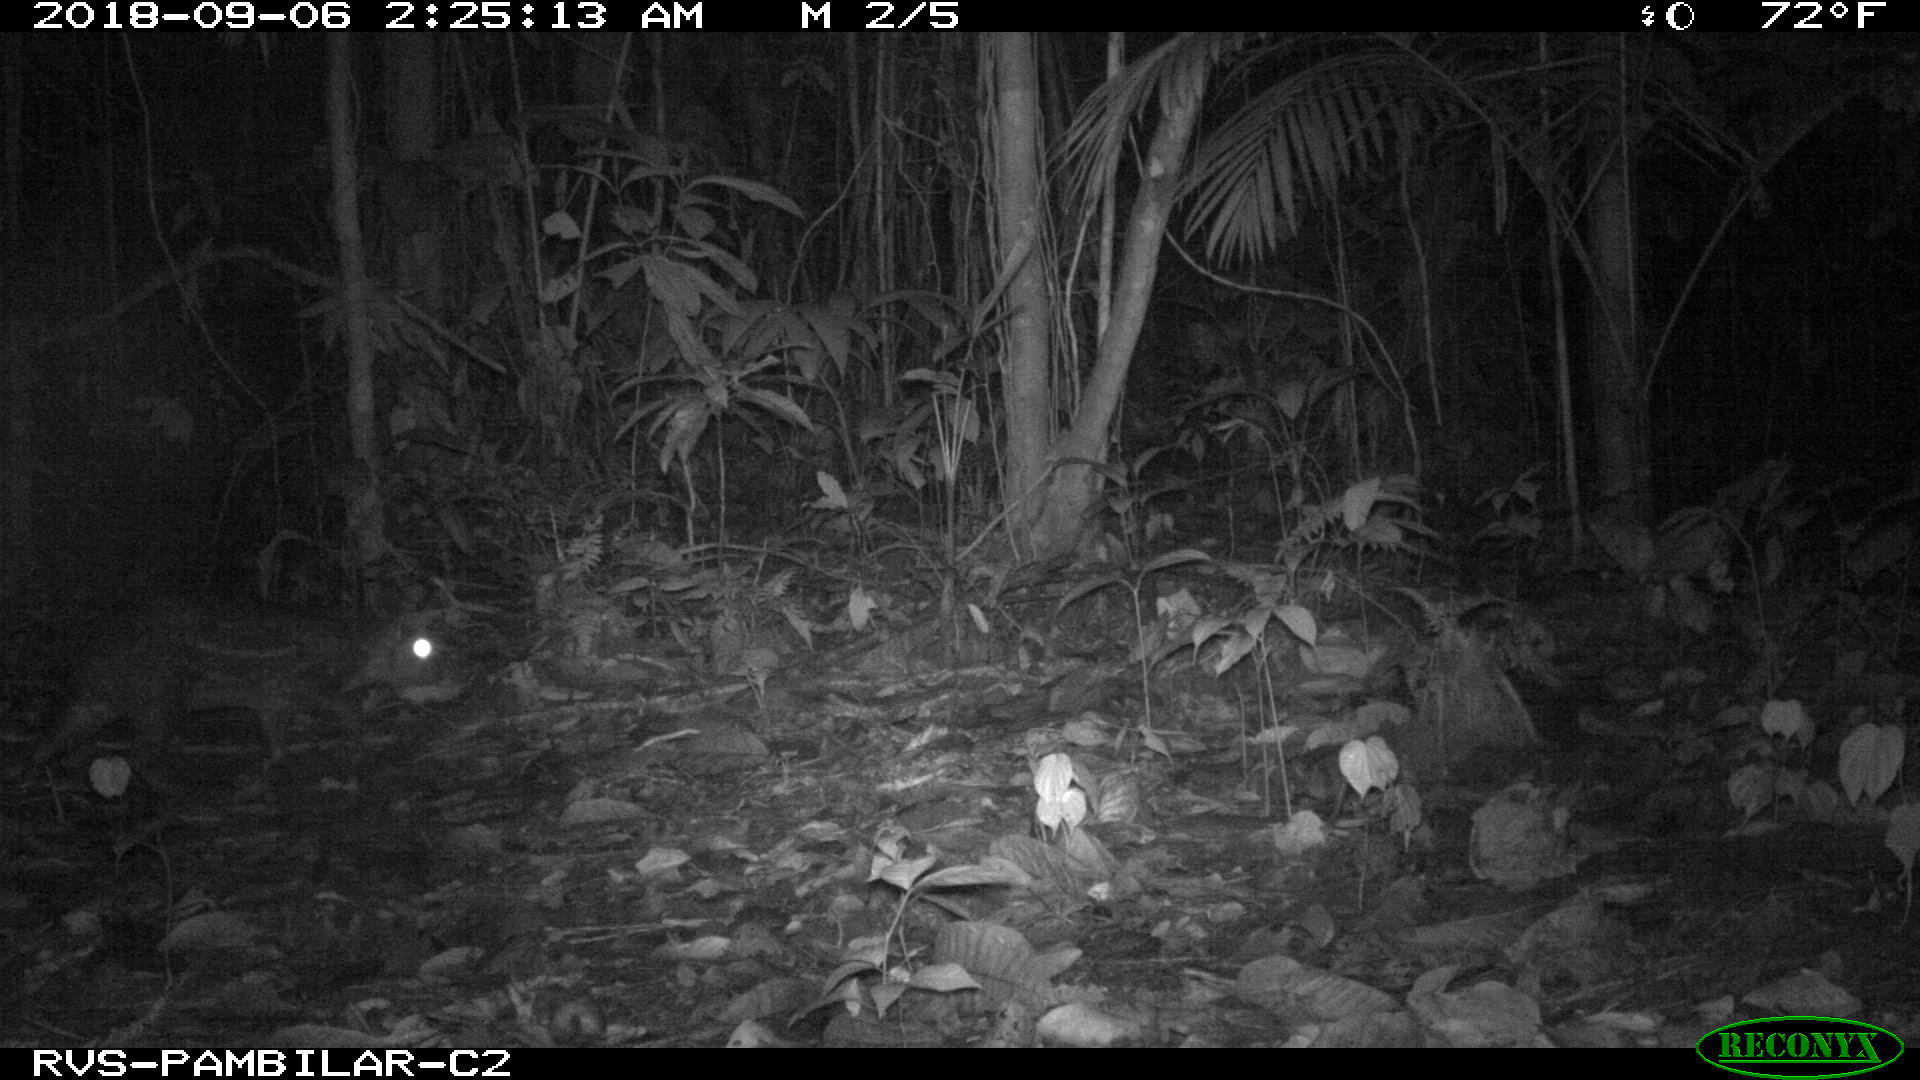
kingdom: Animalia
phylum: Chordata
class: Mammalia
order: Rodentia
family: Cuniculidae
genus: Cuniculus
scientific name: Cuniculus paca
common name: Lowland paca
